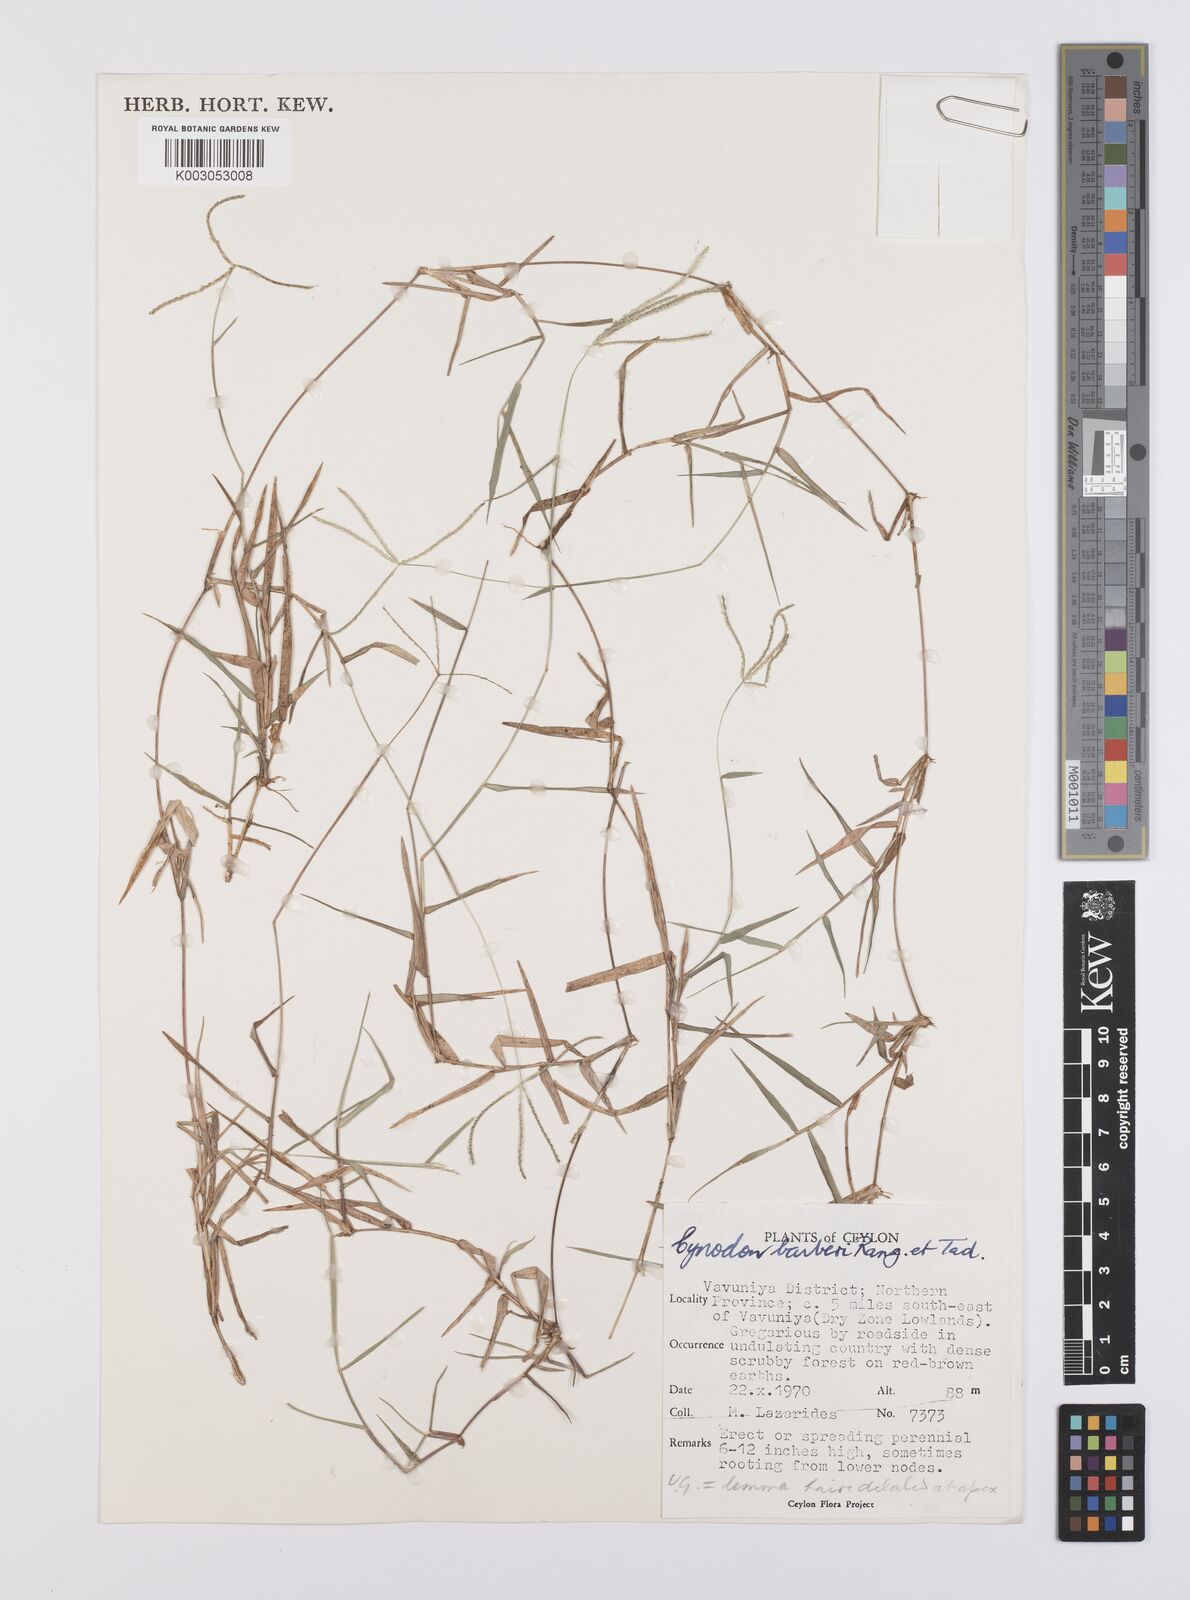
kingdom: Plantae
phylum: Tracheophyta
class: Liliopsida
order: Poales
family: Poaceae
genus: Cynodon
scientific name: Cynodon barberi
